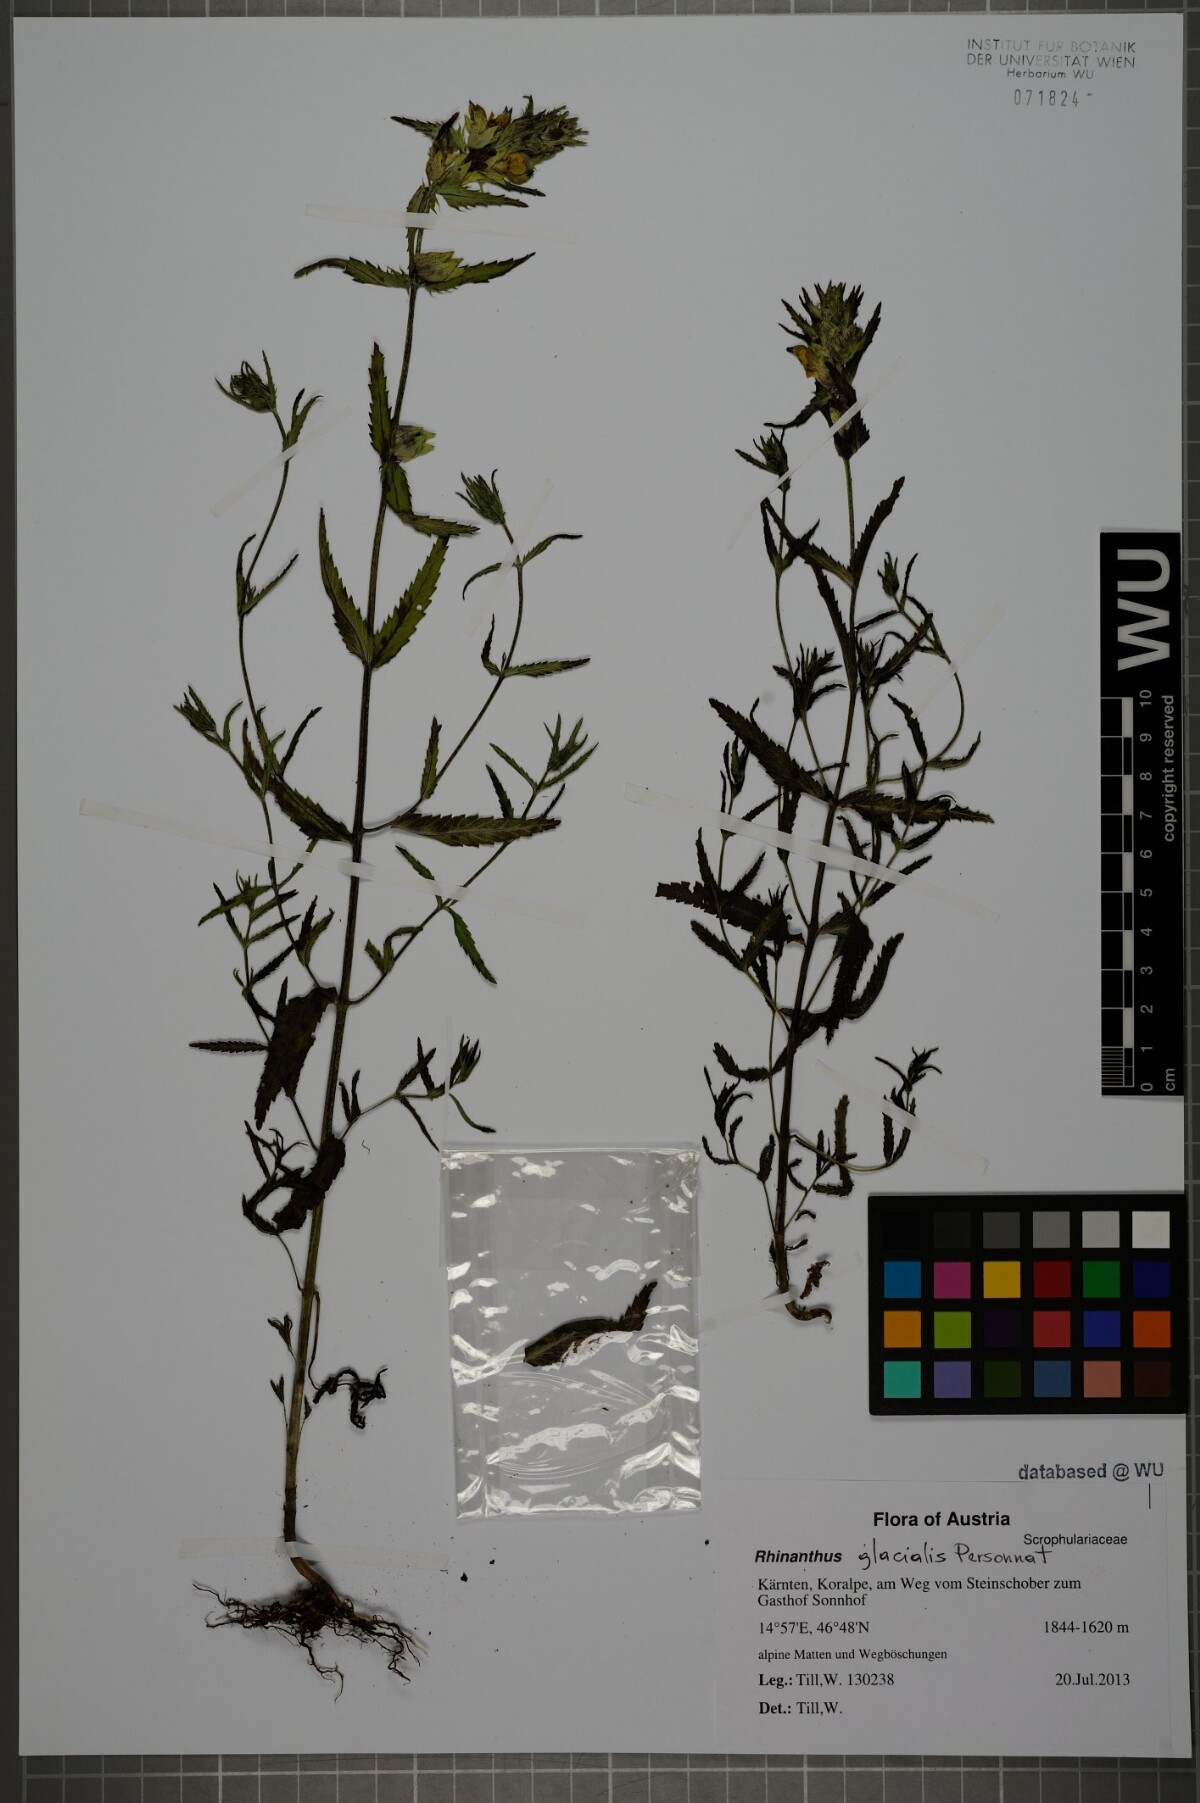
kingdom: Plantae
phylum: Tracheophyta
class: Magnoliopsida
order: Lamiales
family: Orobanchaceae
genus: Rhinanthus
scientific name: Rhinanthus glacialis
